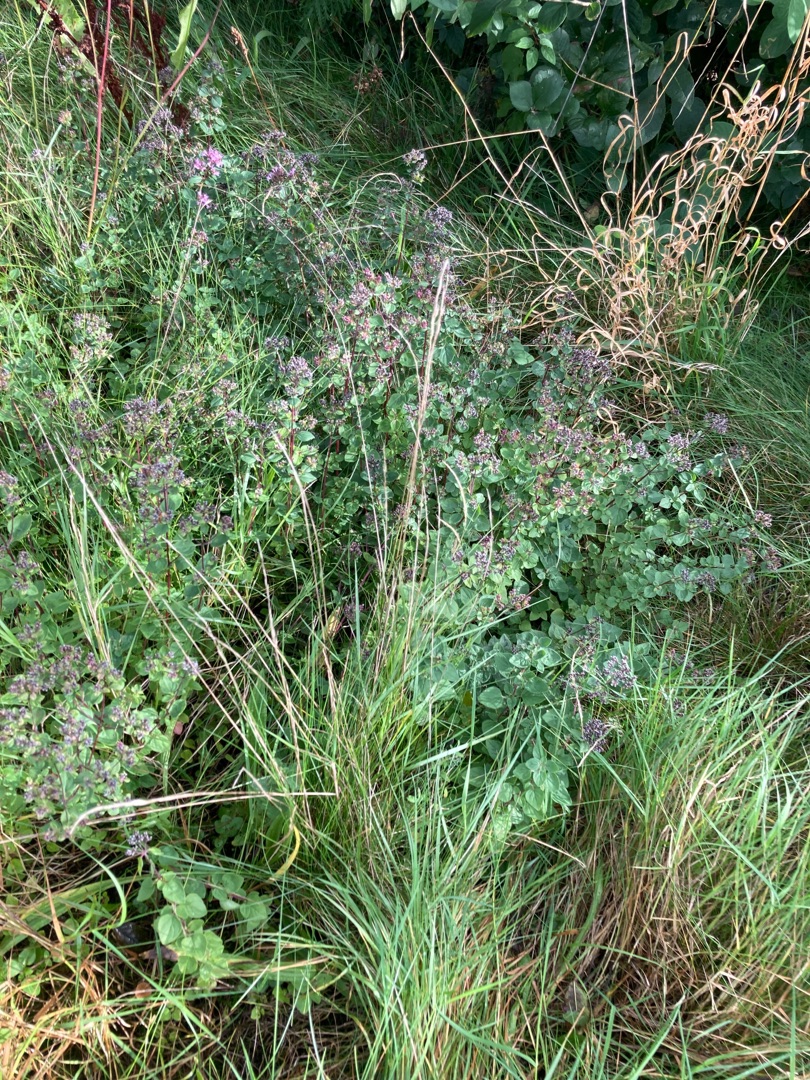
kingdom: Plantae
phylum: Tracheophyta
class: Magnoliopsida
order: Lamiales
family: Lamiaceae
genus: Origanum
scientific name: Origanum vulgare
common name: Merian
